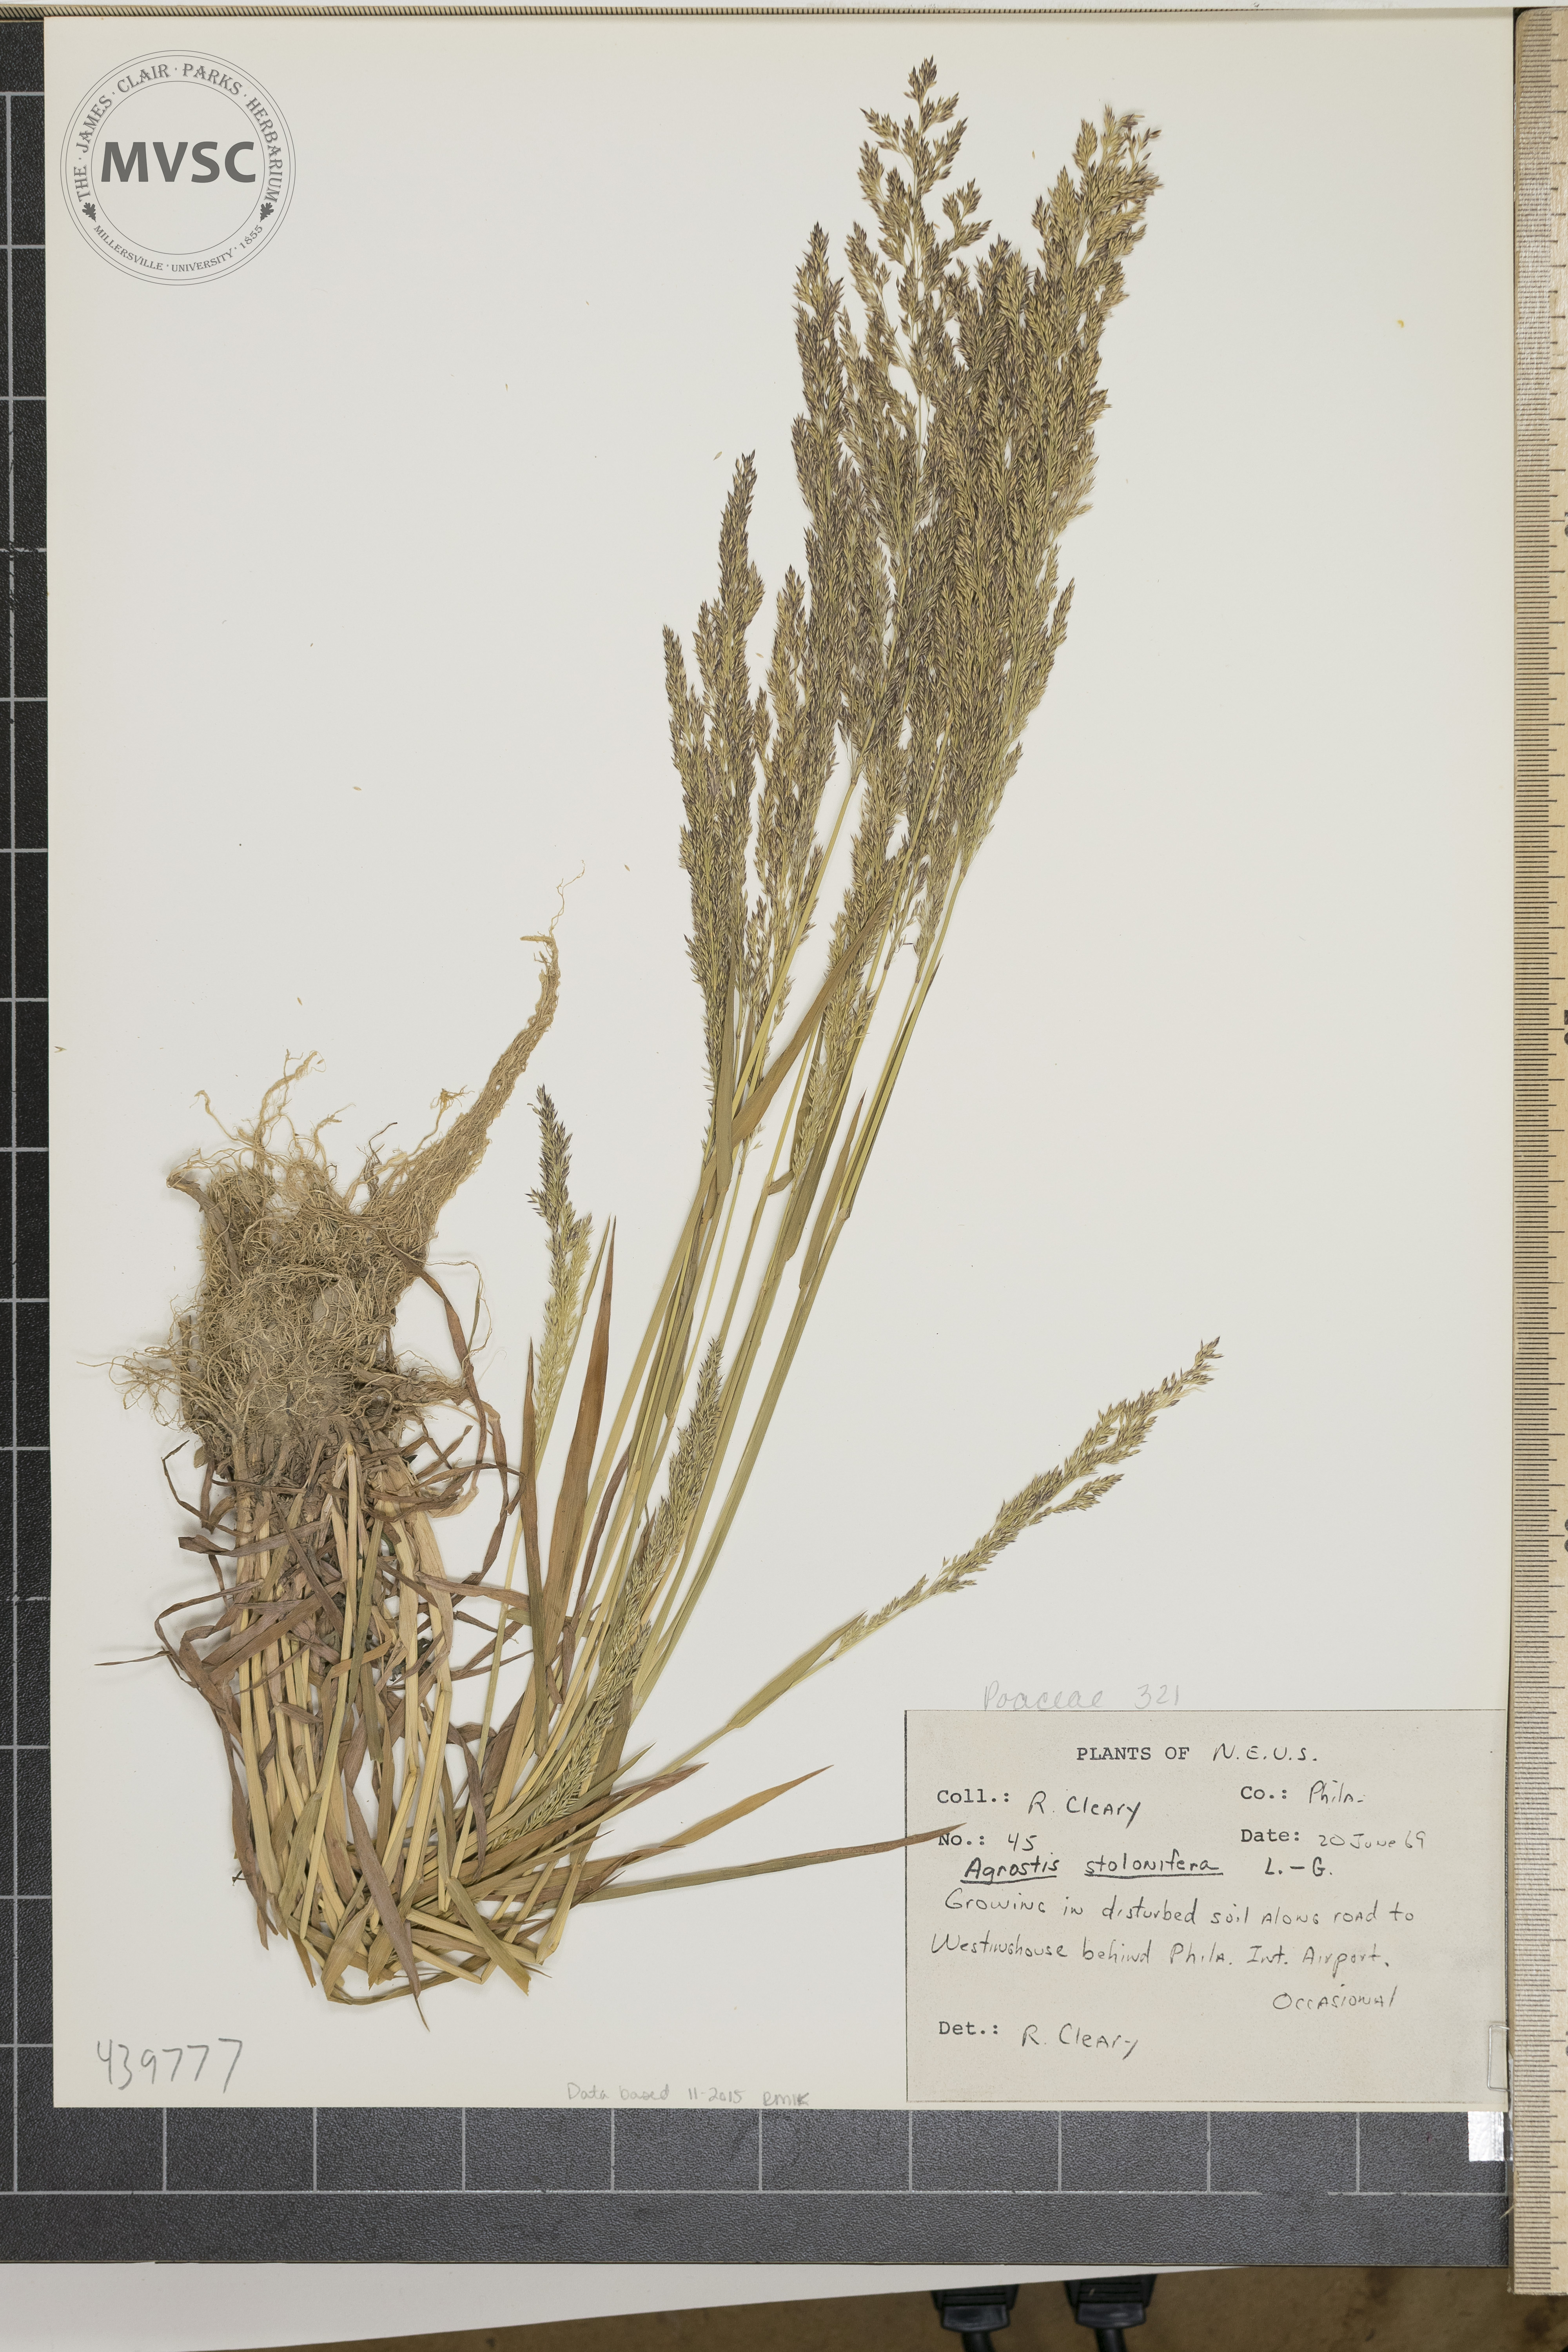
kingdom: Plantae
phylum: Tracheophyta
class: Liliopsida
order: Poales
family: Poaceae
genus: Agrostis
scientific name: Agrostis stolonifera
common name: Creeping bentgrass
